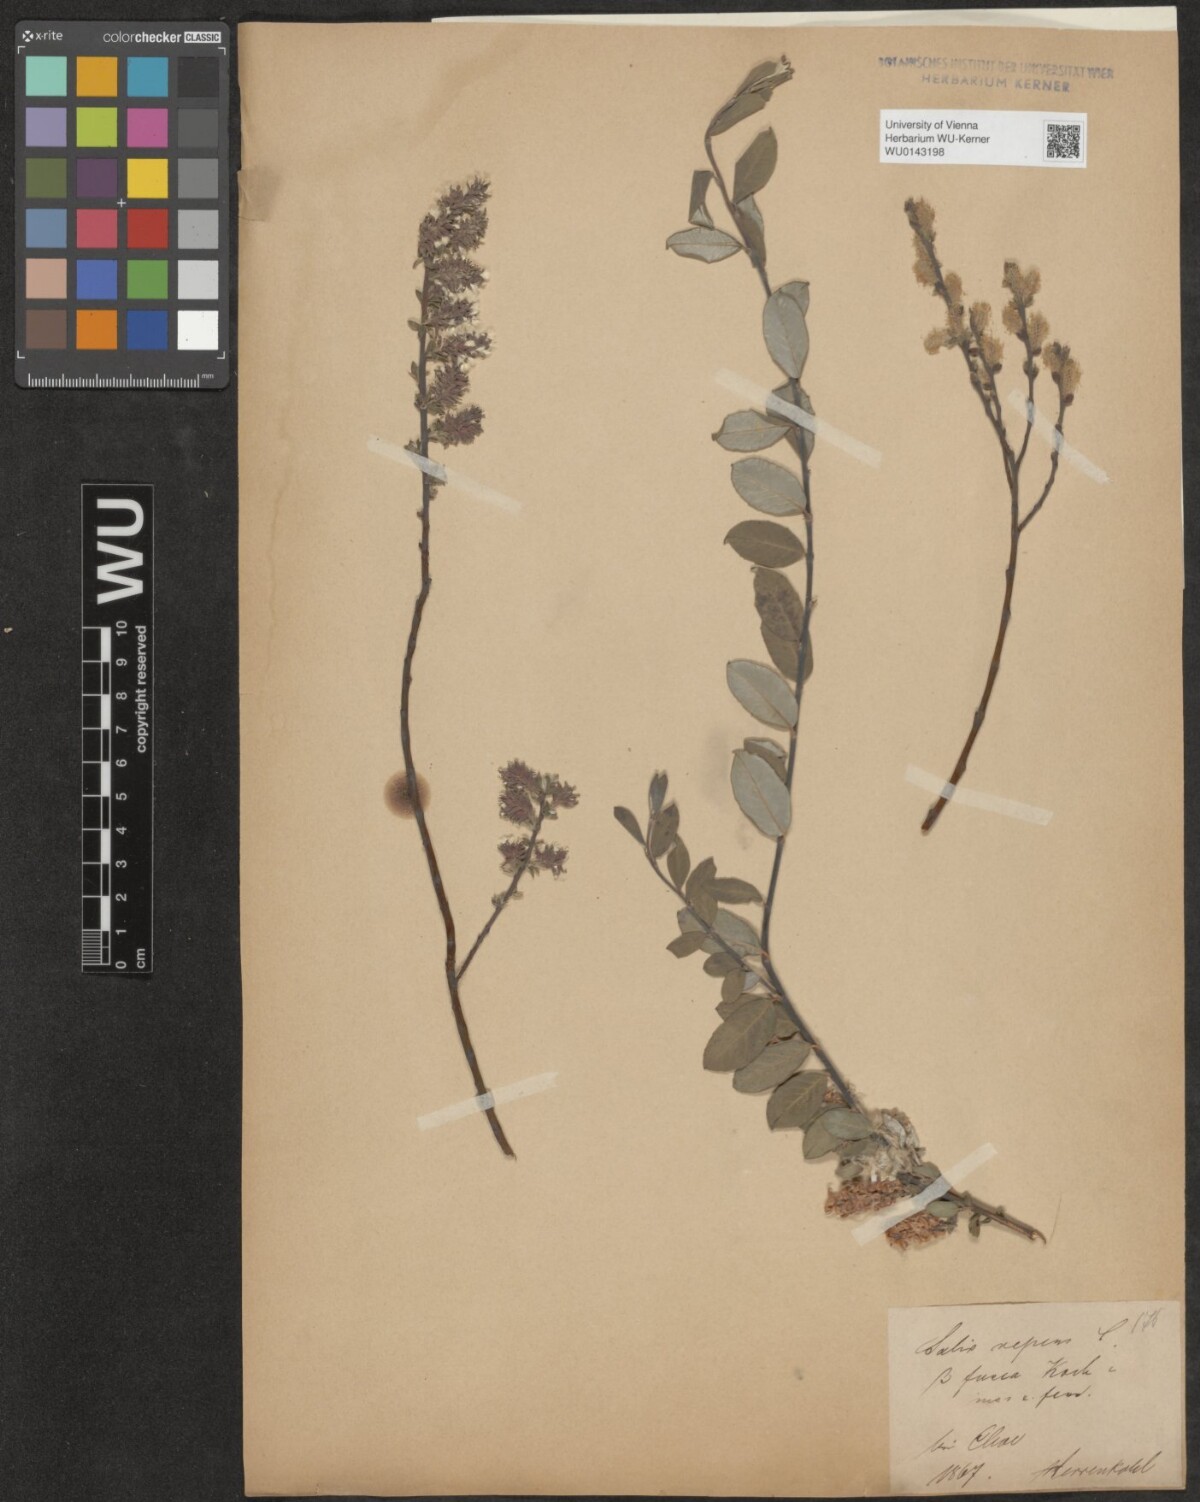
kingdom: Plantae
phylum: Tracheophyta
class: Magnoliopsida
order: Malpighiales
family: Salicaceae
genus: Salix
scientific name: Salix repens
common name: Creeping willow
